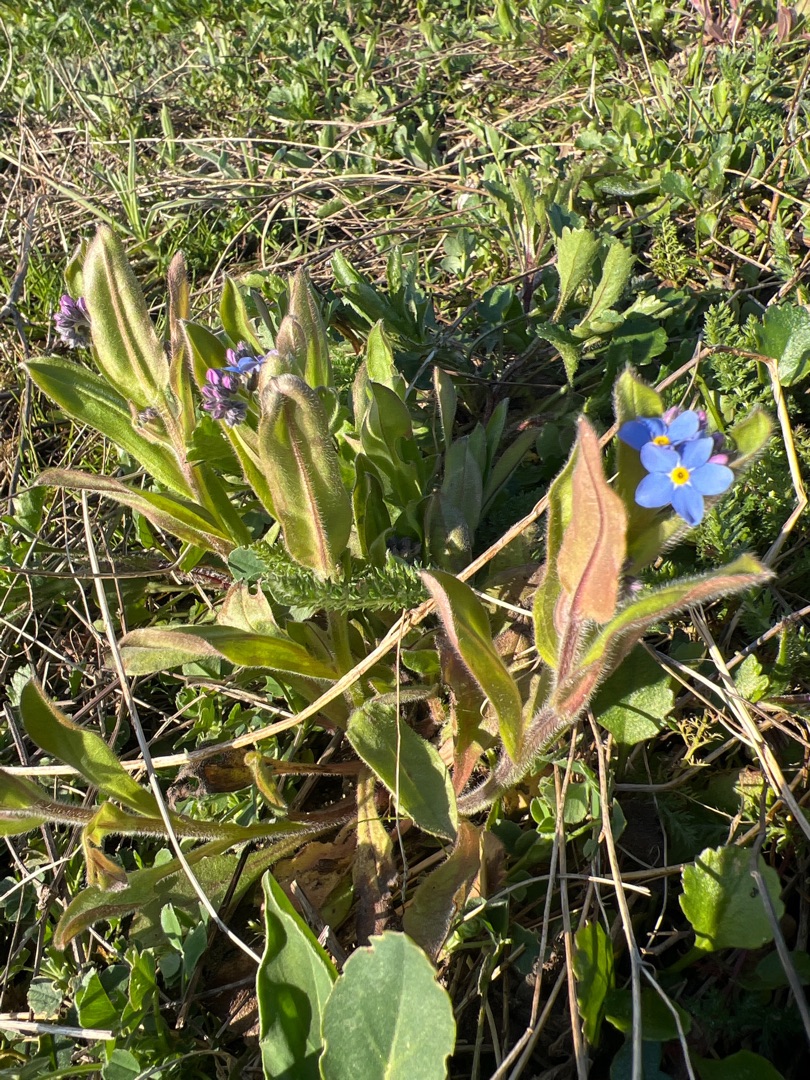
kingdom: Plantae
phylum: Tracheophyta
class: Magnoliopsida
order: Boraginales
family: Boraginaceae
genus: Myosotis
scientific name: Myosotis sylvatica
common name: Skov-forglemmigej
